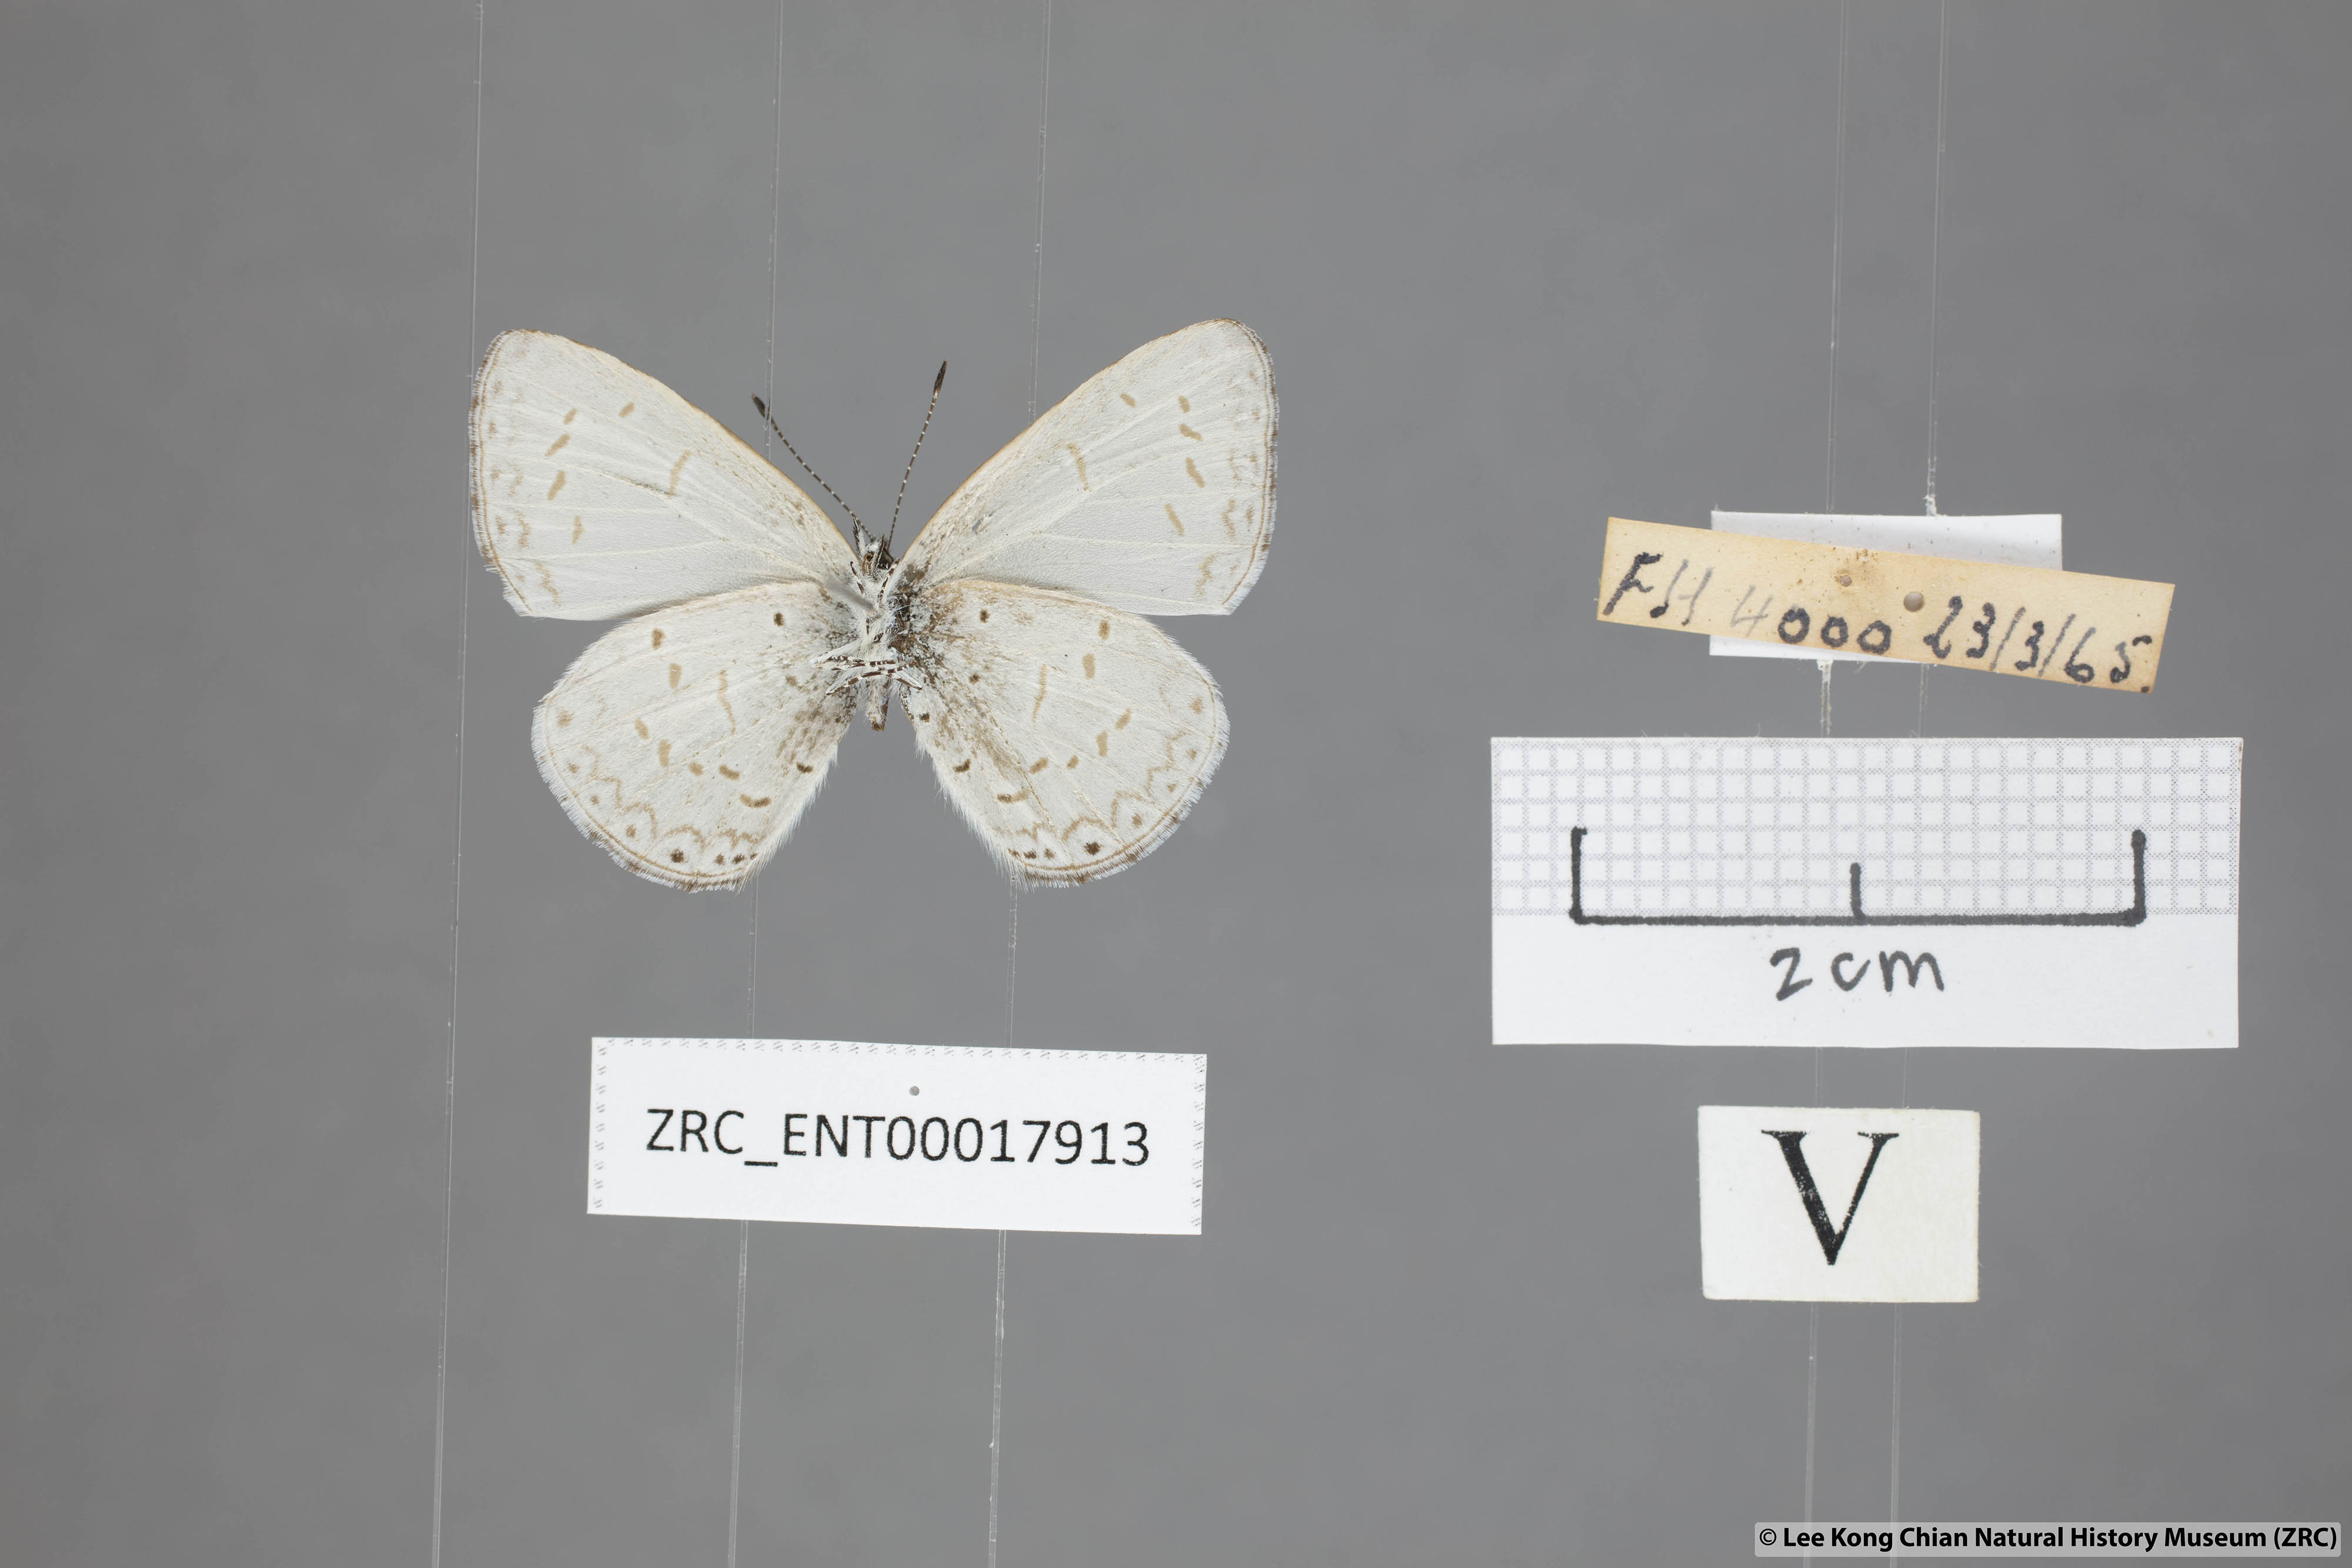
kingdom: Animalia
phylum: Arthropoda
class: Insecta
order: Lepidoptera
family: Lycaenidae
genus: Udara
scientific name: Udara
